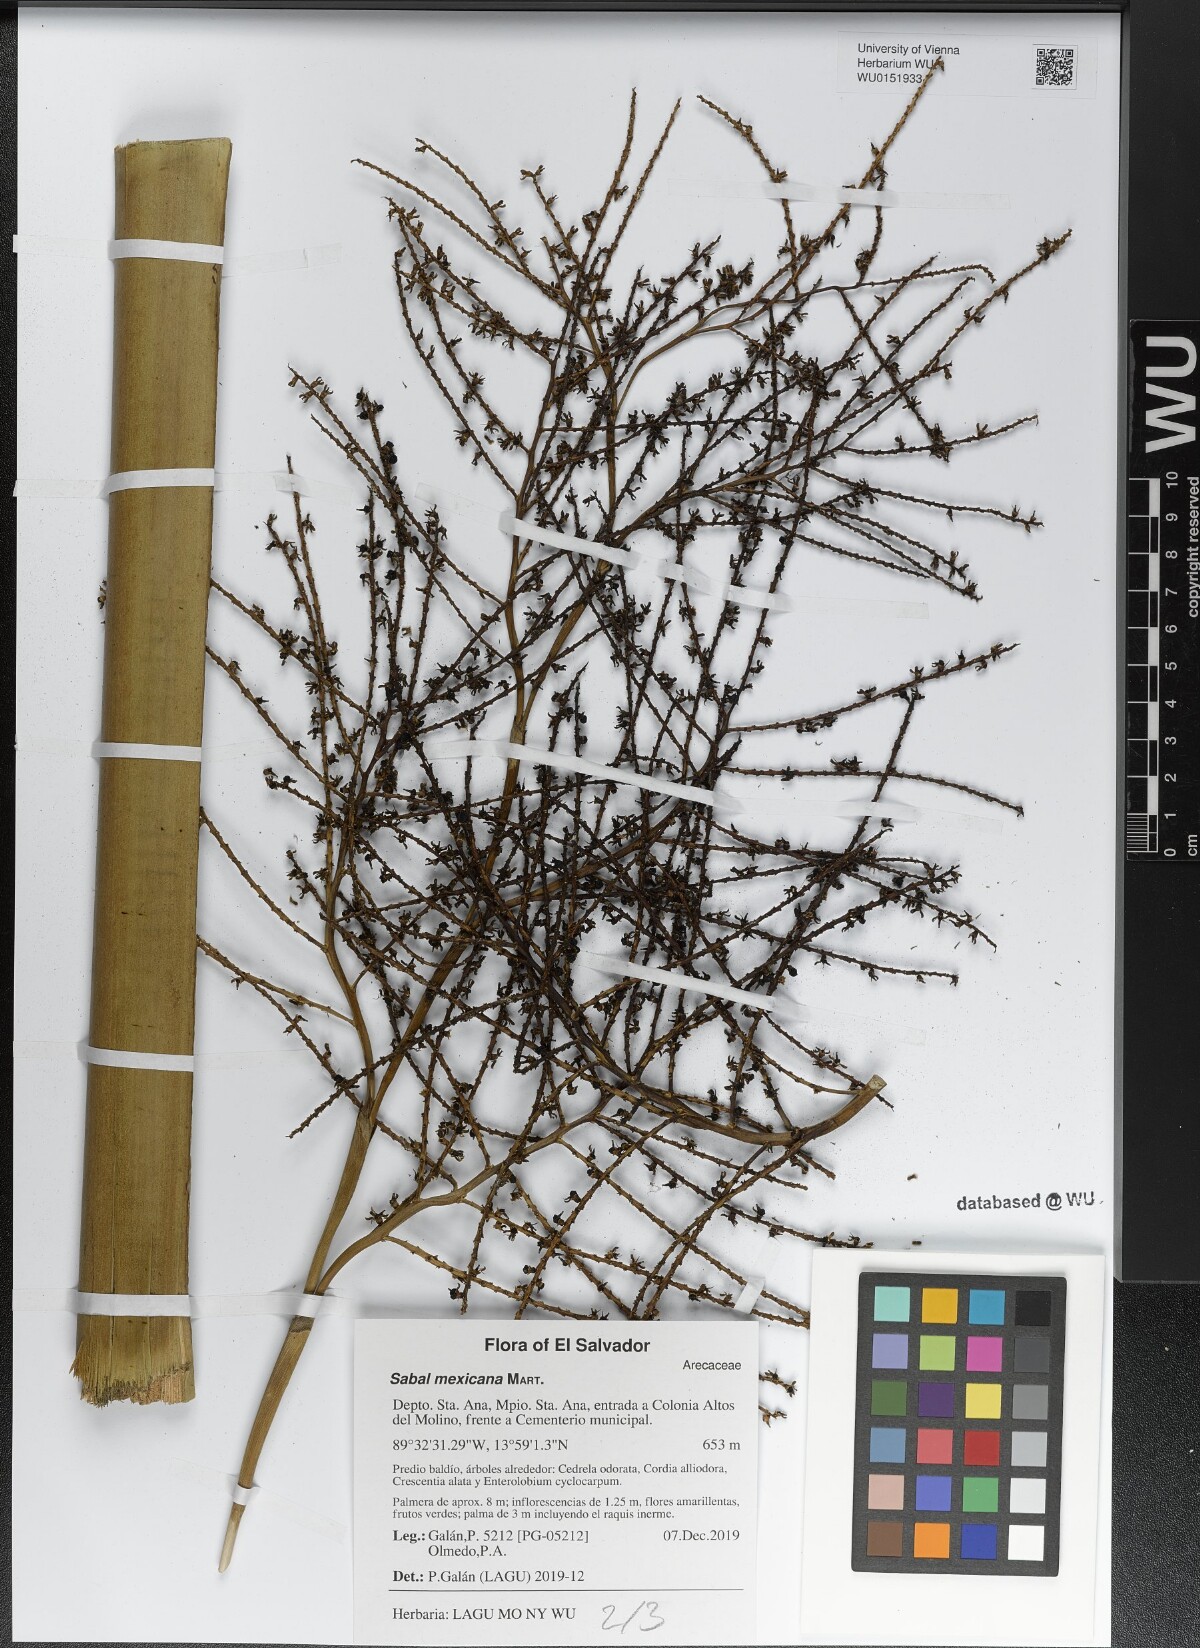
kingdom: Plantae
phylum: Tracheophyta
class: Liliopsida
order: Arecales
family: Arecaceae
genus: Sabal
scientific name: Sabal mexicana
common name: Texas palmetto
